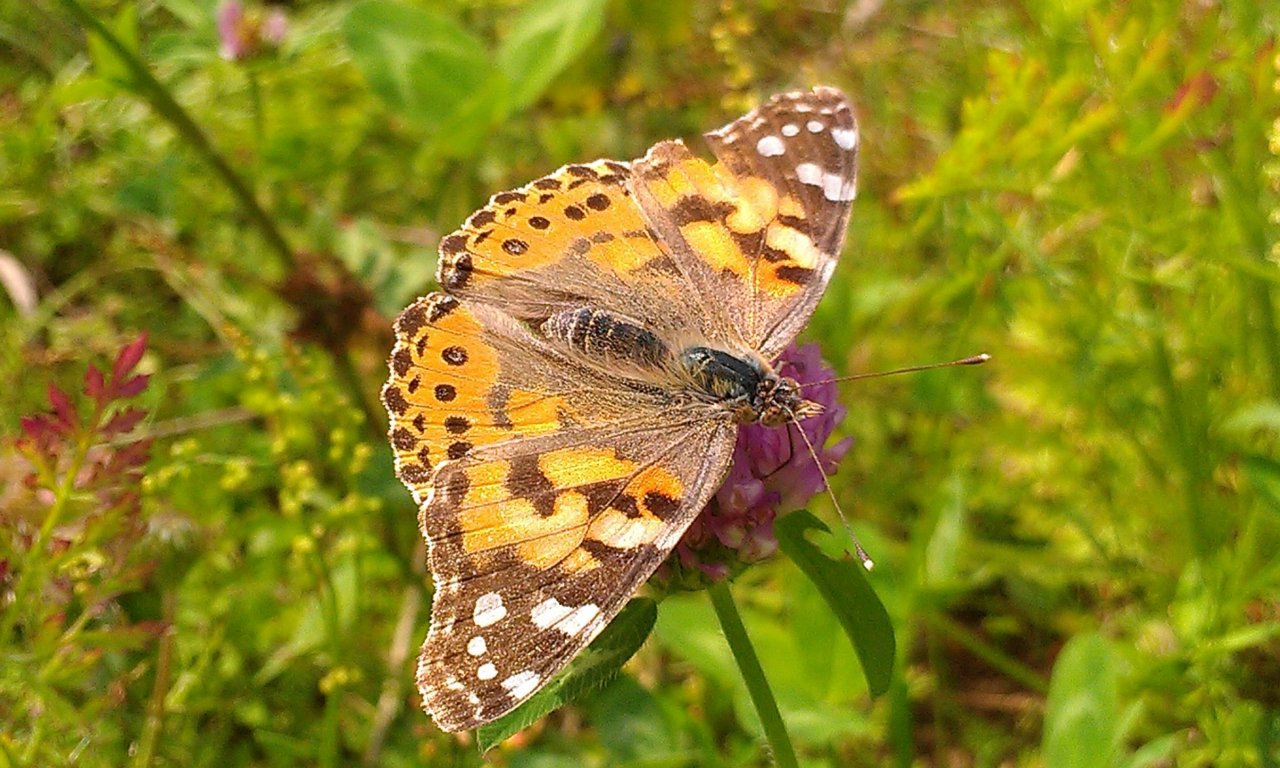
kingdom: Animalia
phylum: Arthropoda
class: Insecta
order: Lepidoptera
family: Nymphalidae
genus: Vanessa
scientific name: Vanessa cardui
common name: Painted Lady
